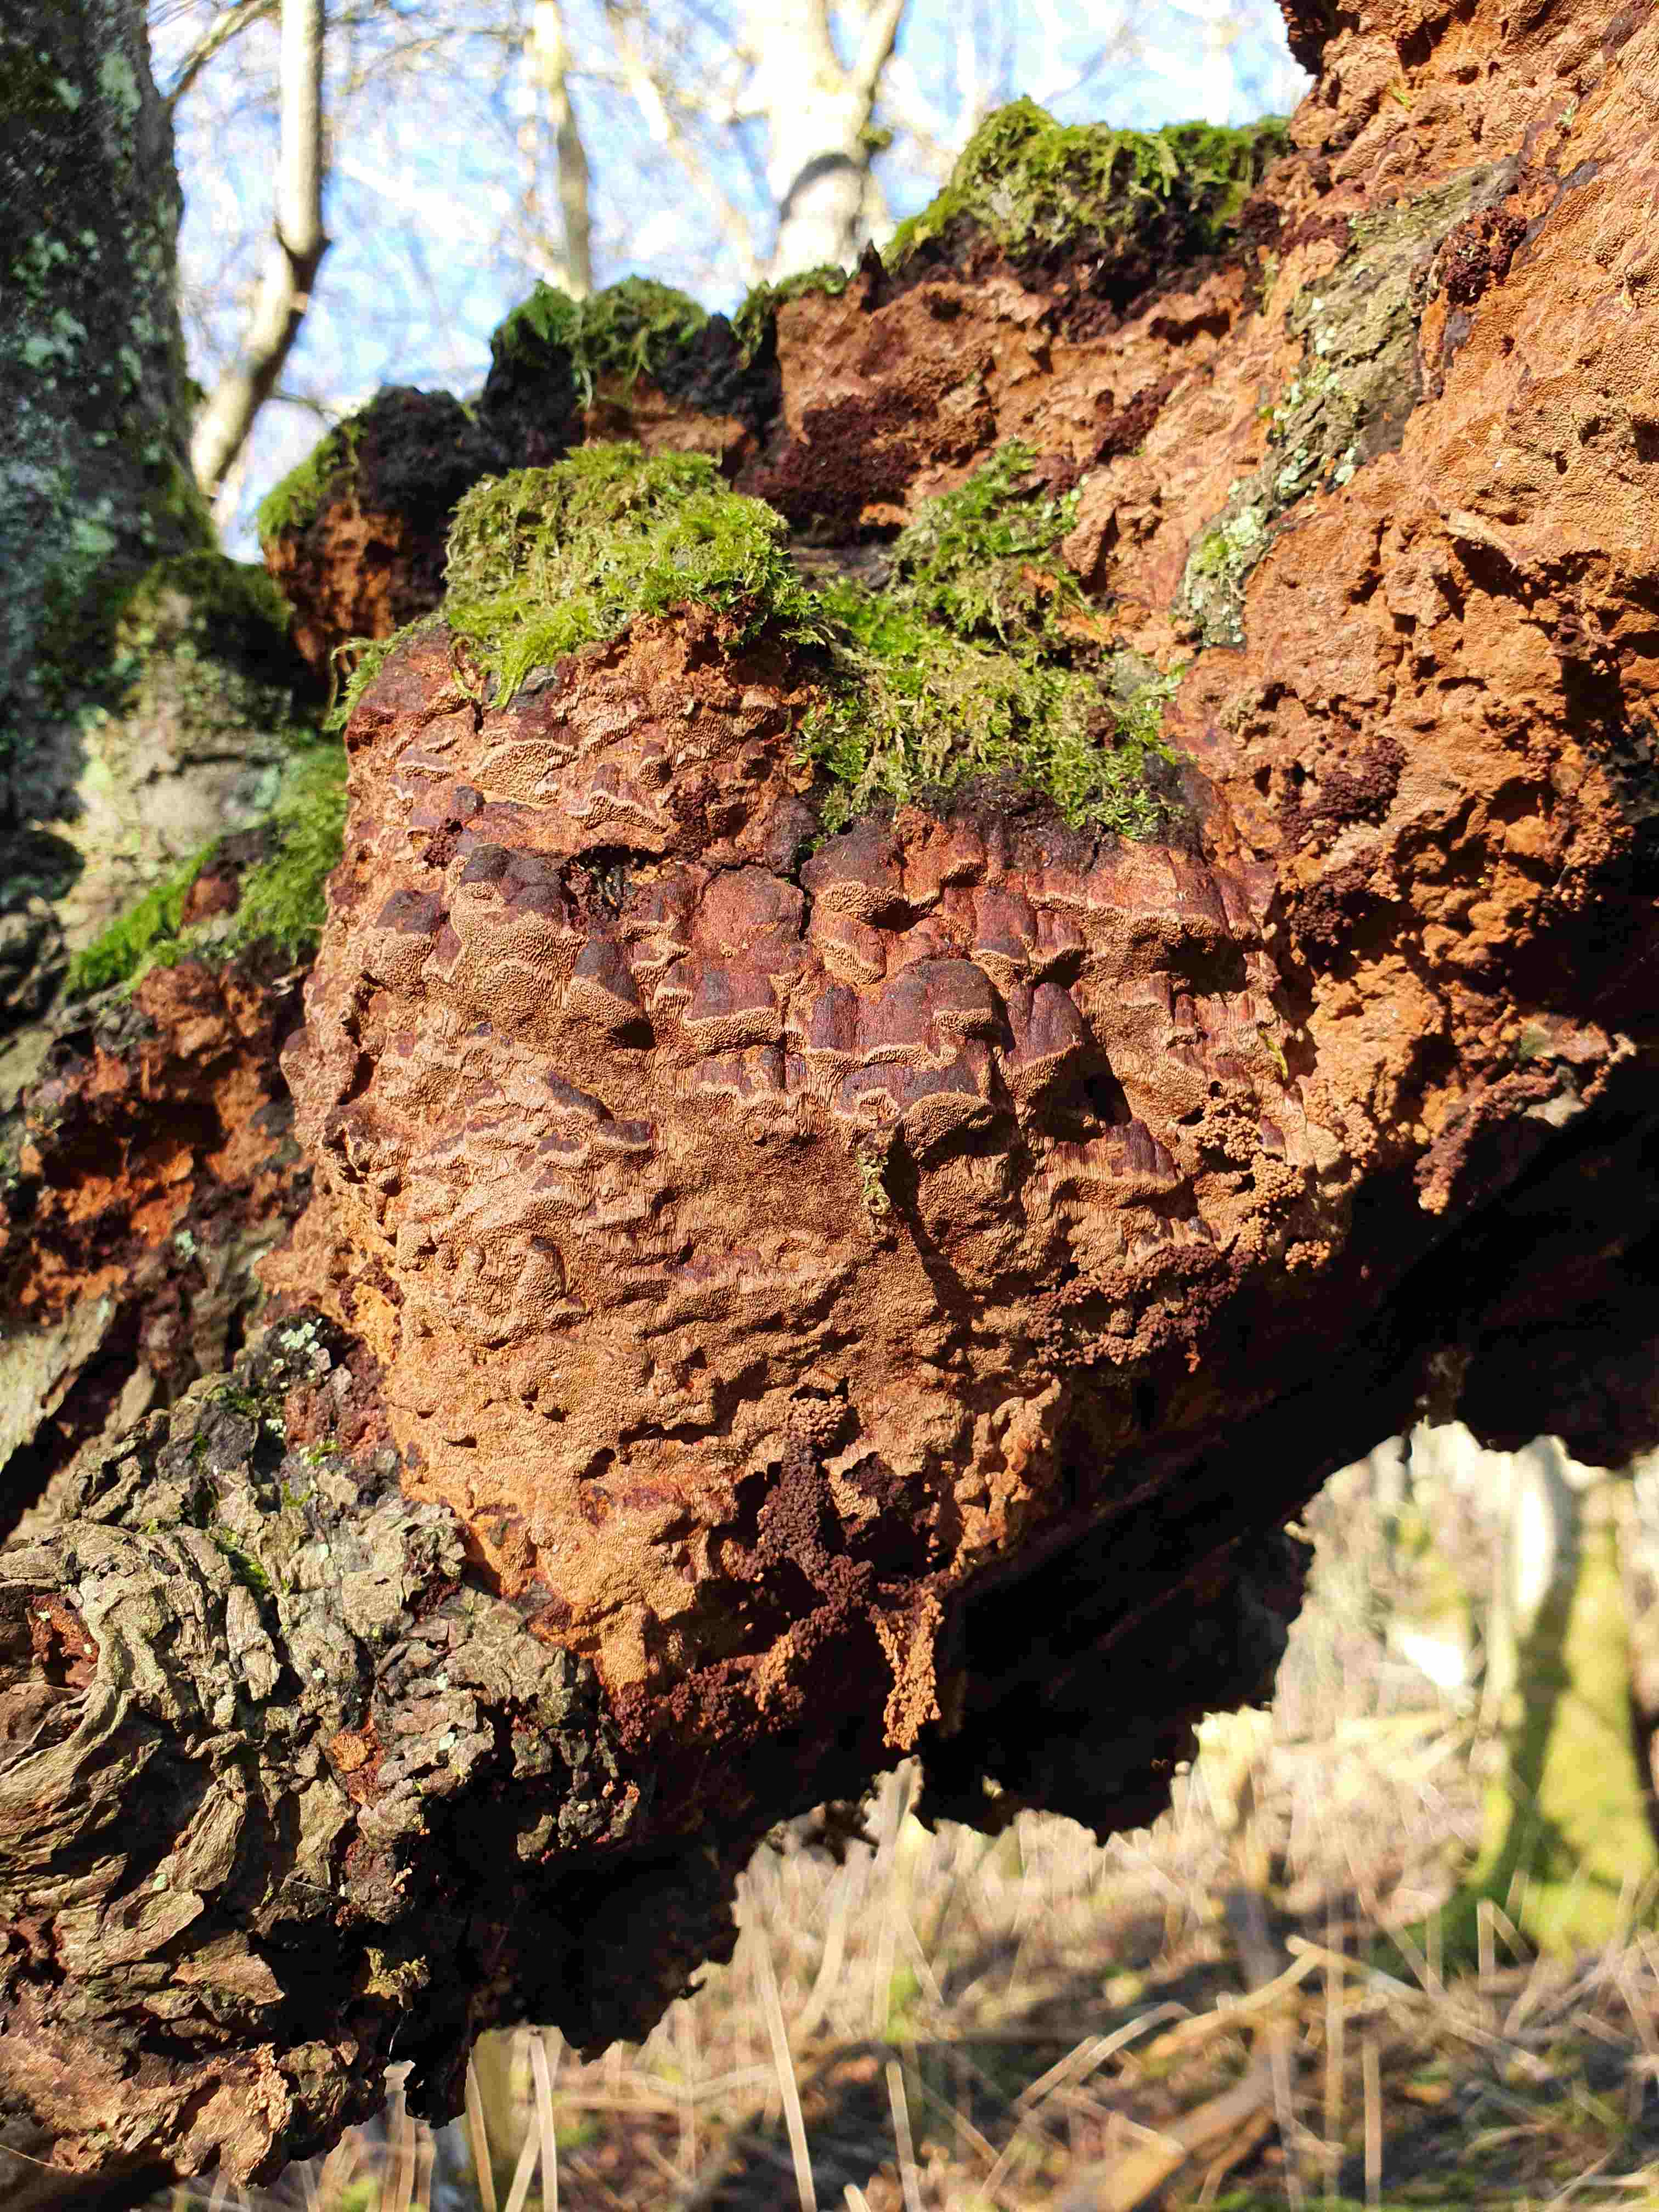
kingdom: Fungi
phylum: Basidiomycota
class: Agaricomycetes
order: Hymenochaetales
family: Hymenochaetaceae
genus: Fuscoporia
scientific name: Fuscoporia ferrea
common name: skorpe-ildporesvamp
